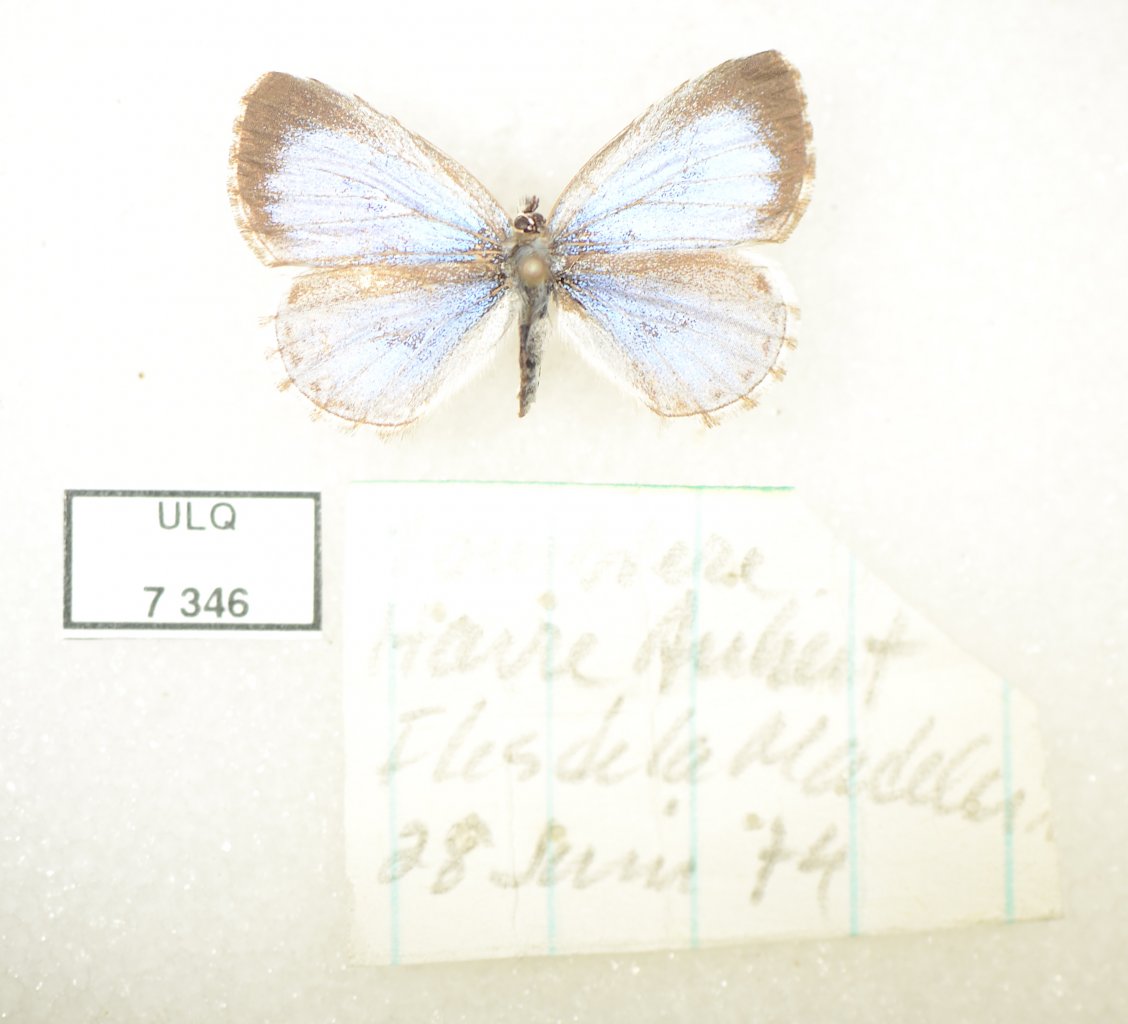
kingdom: Animalia
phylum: Arthropoda
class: Insecta
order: Lepidoptera
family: Lycaenidae
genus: Celastrina
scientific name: Celastrina lucia
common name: Northern Spring Azure
